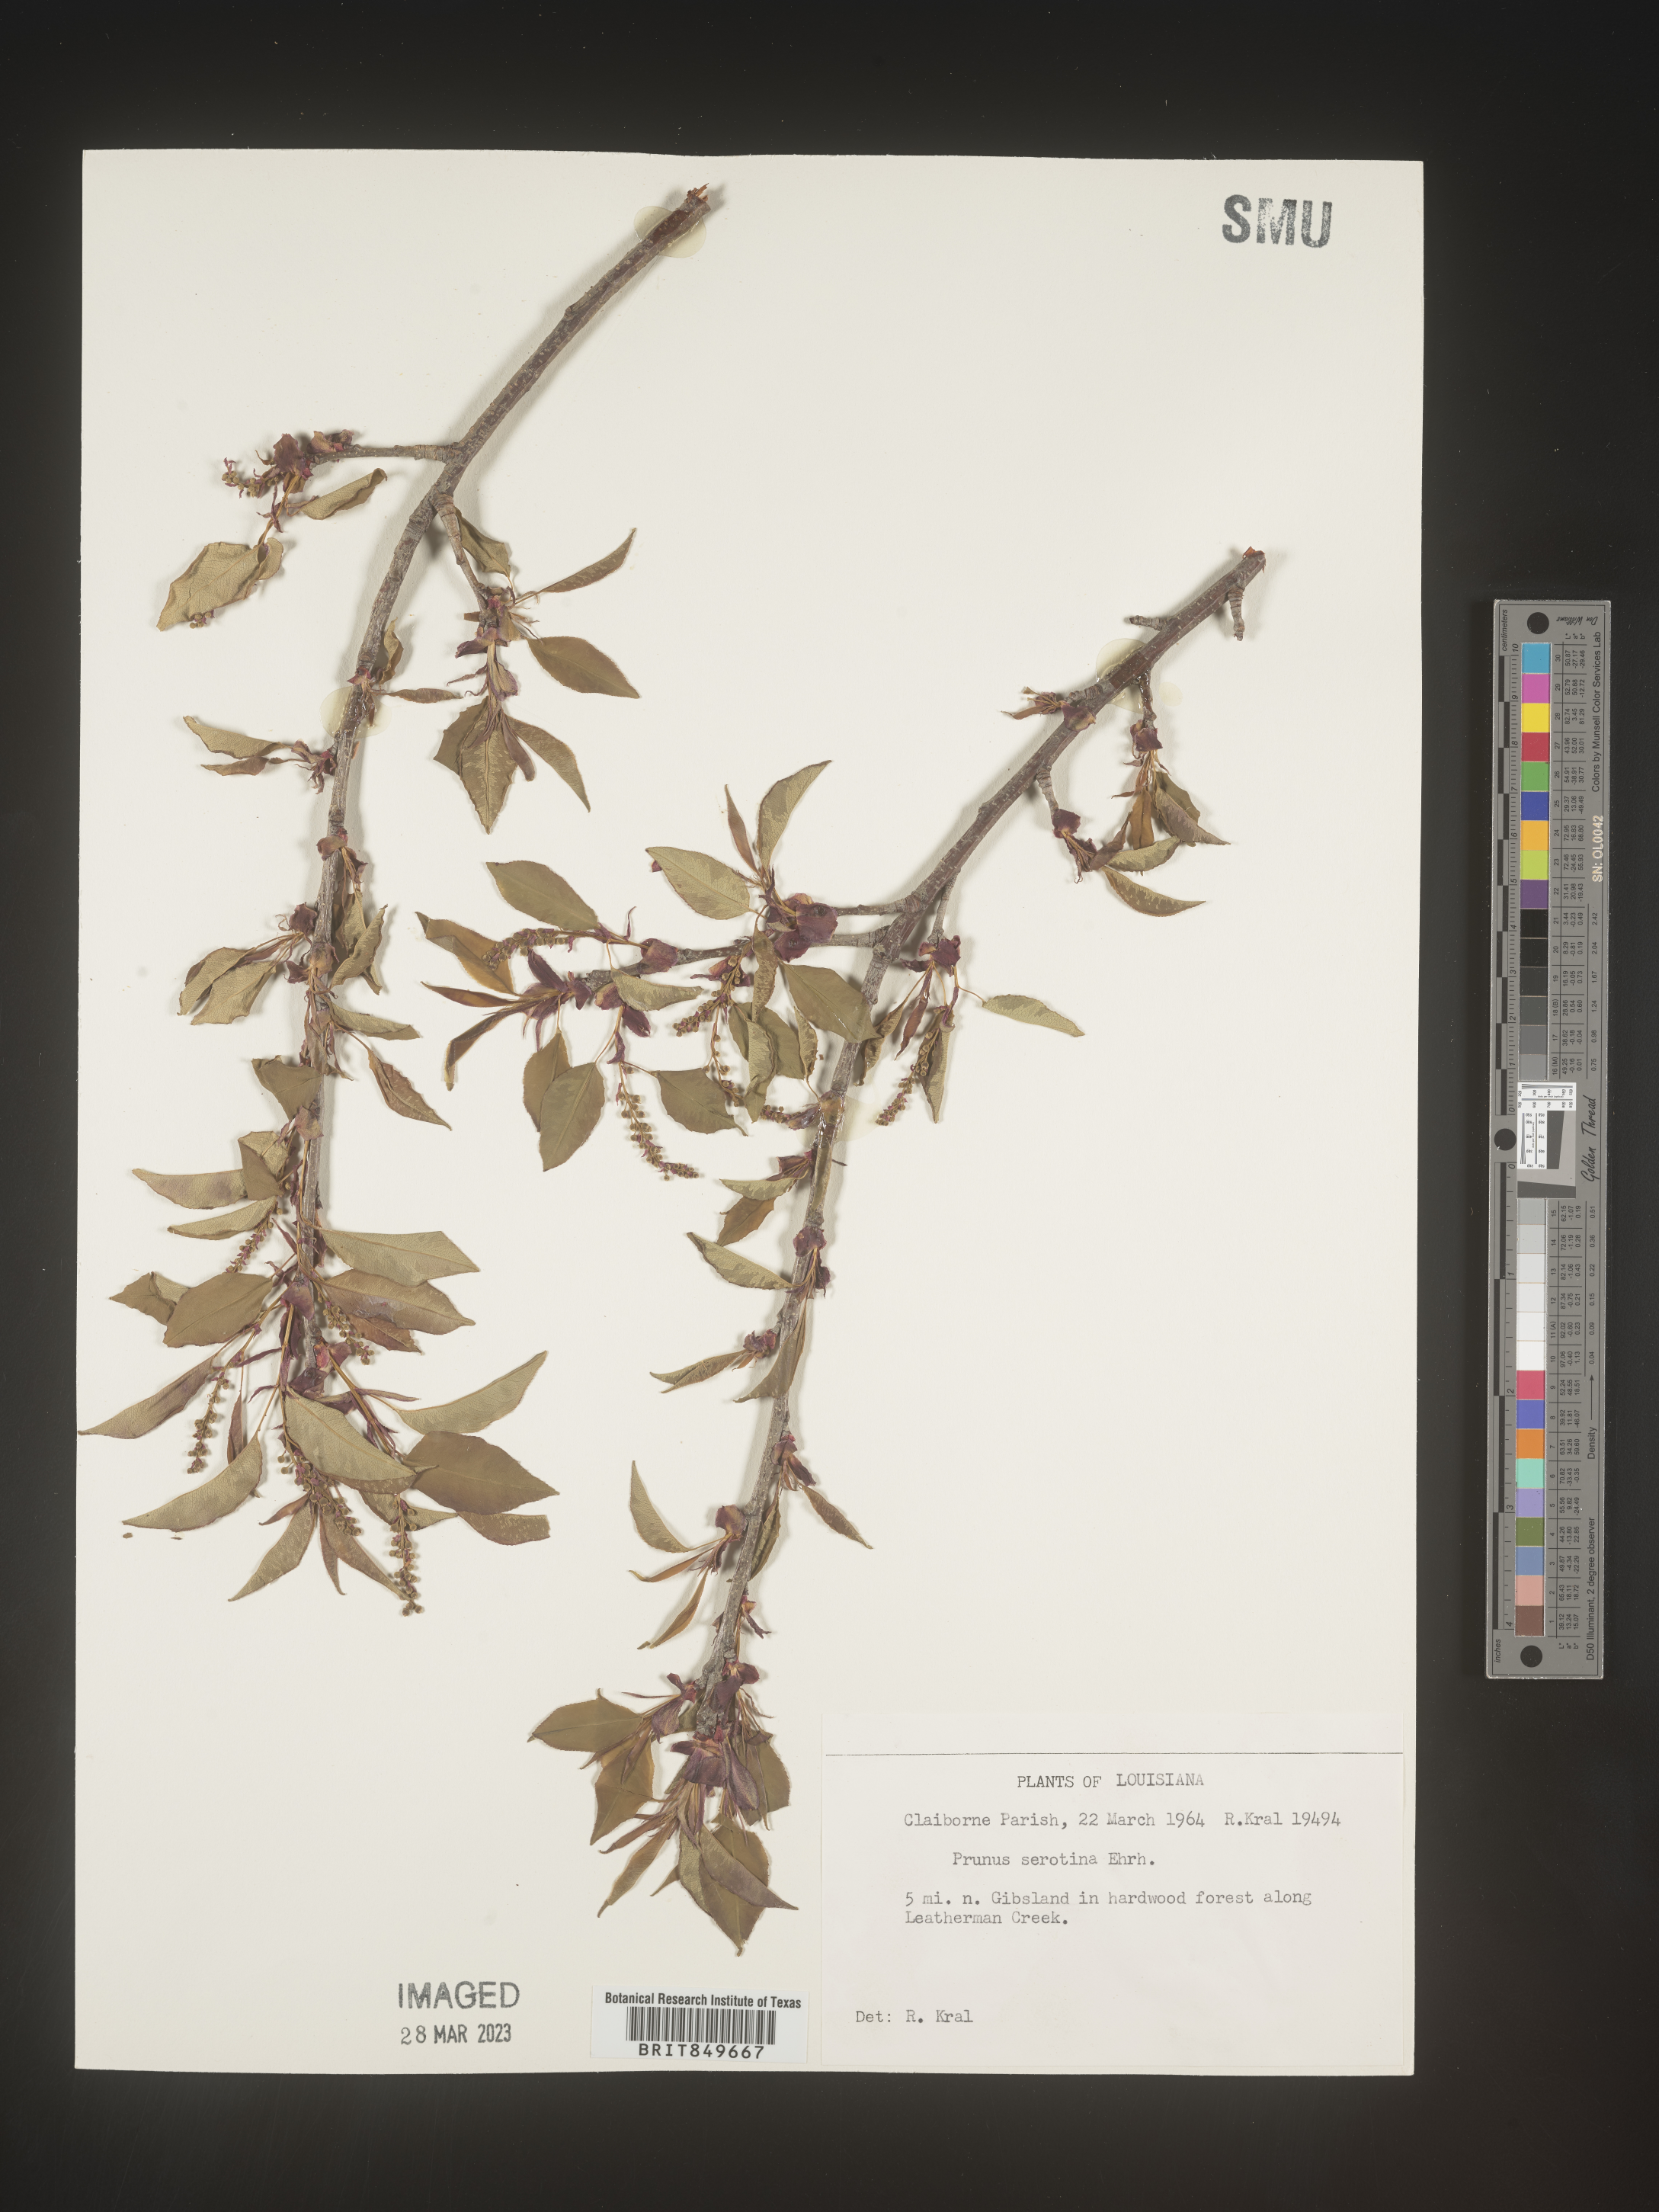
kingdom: Plantae
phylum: Tracheophyta
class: Magnoliopsida
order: Rosales
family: Rosaceae
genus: Prunus
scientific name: Prunus serotina
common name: Black cherry
